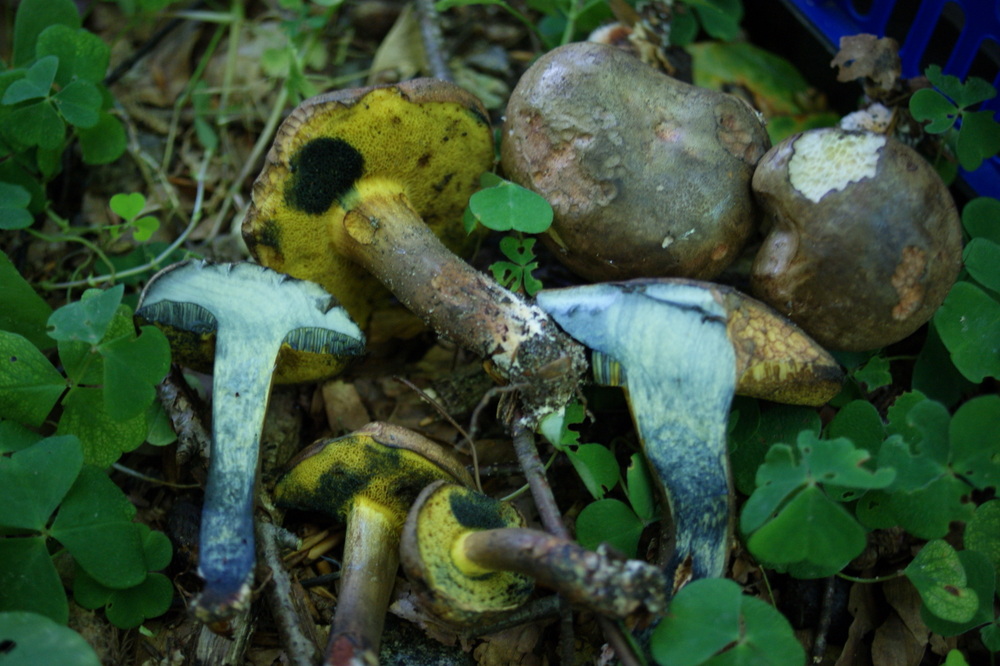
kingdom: Fungi
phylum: Basidiomycota
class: Agaricomycetes
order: Boletales
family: Boletaceae
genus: Cyanoboletus
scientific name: Cyanoboletus pulverulentus
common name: sortblånende rørhat
